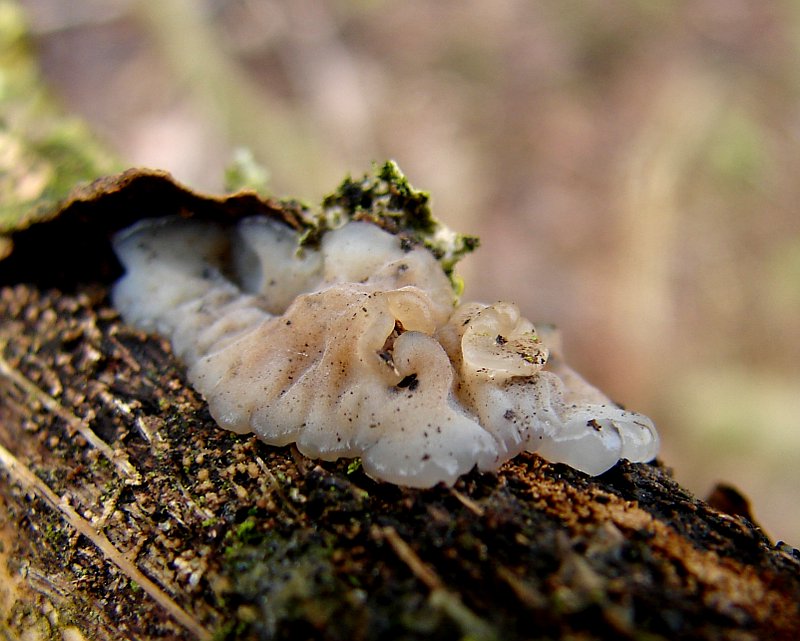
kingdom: Fungi
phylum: Basidiomycota
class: Agaricomycetes
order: Auriculariales
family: Auriculariaceae
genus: Exidia
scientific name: Exidia thuretiana
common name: hvidlig bævretop
